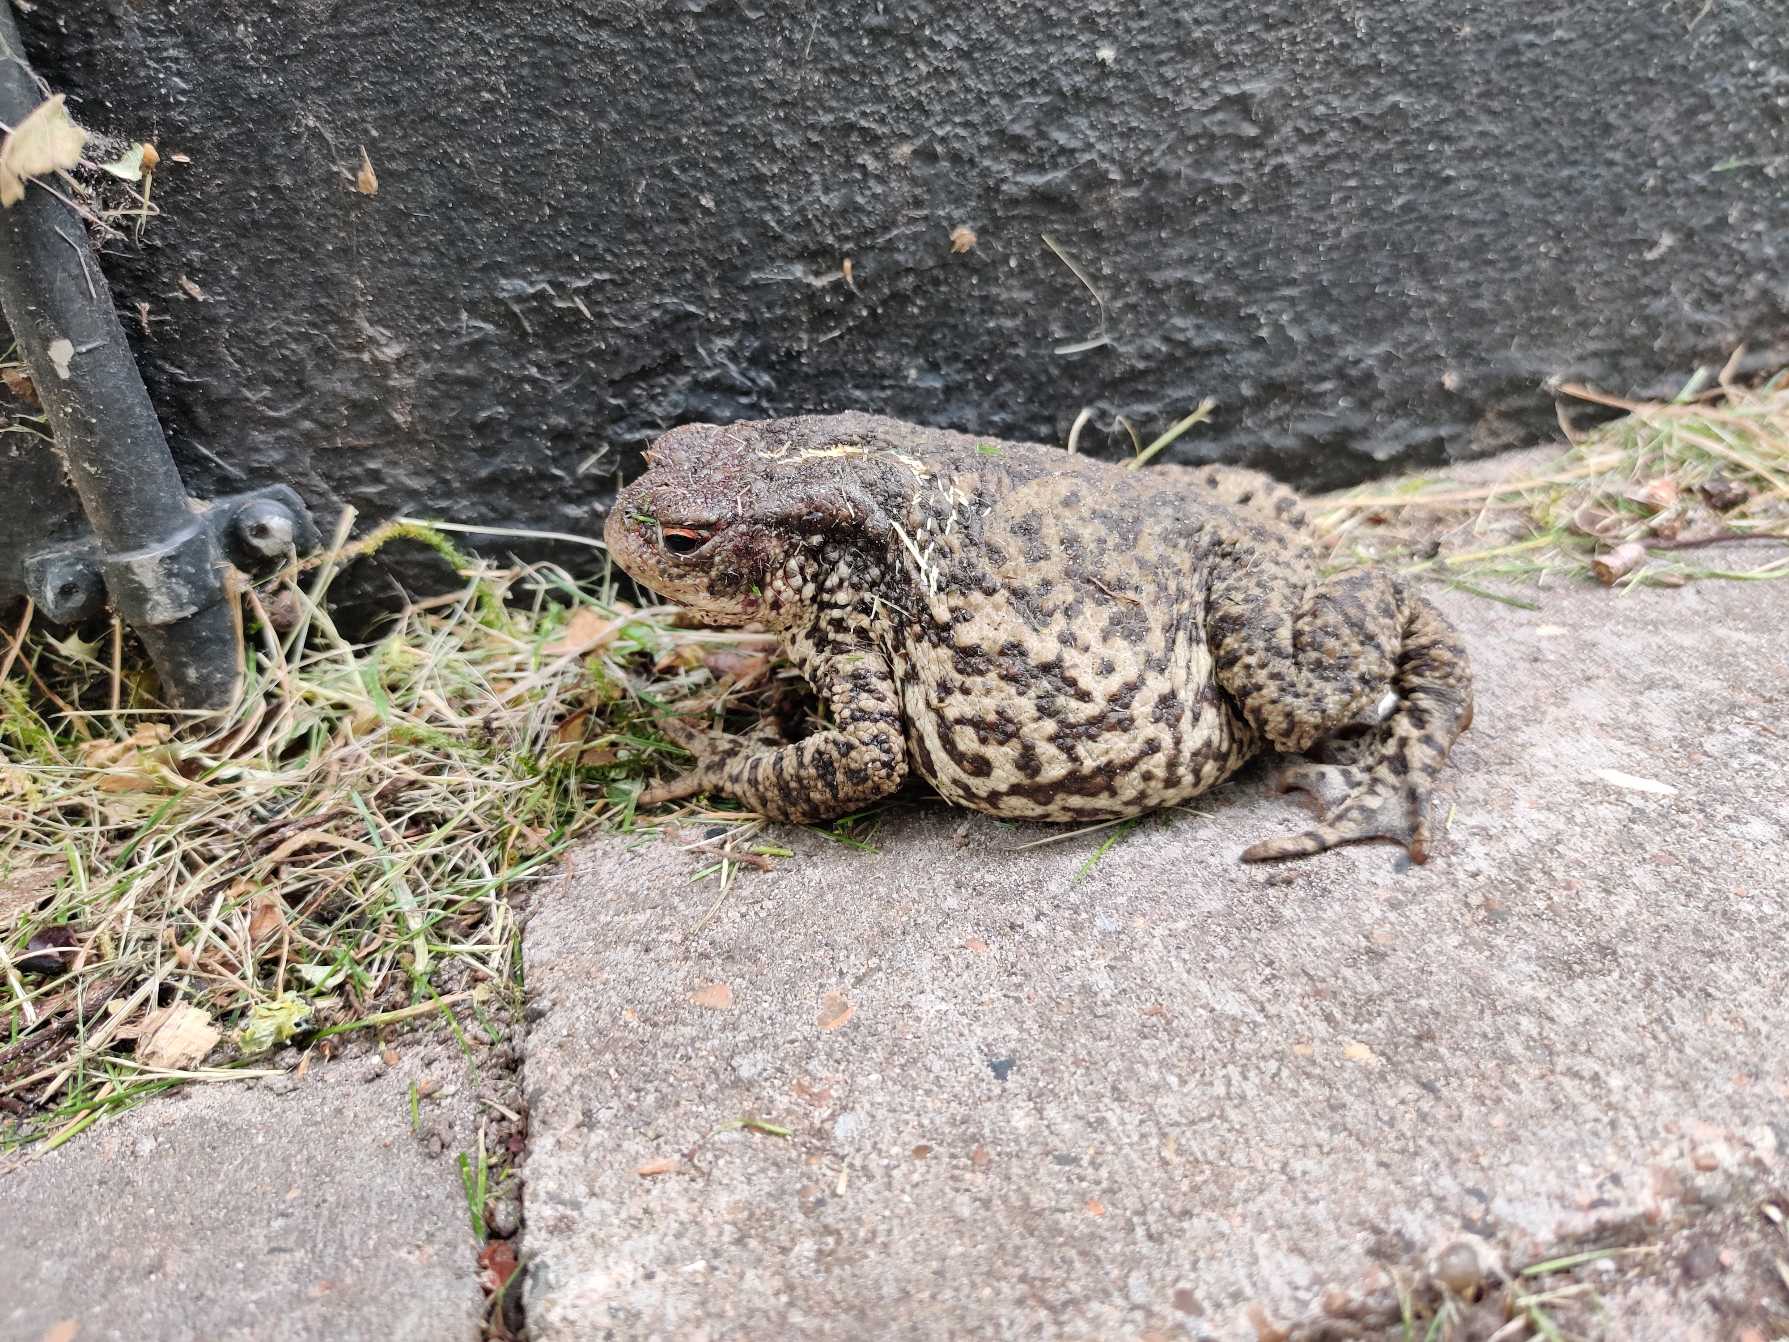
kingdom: Animalia
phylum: Chordata
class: Amphibia
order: Anura
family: Bufonidae
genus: Bufo
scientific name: Bufo bufo
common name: Skrubtudse
